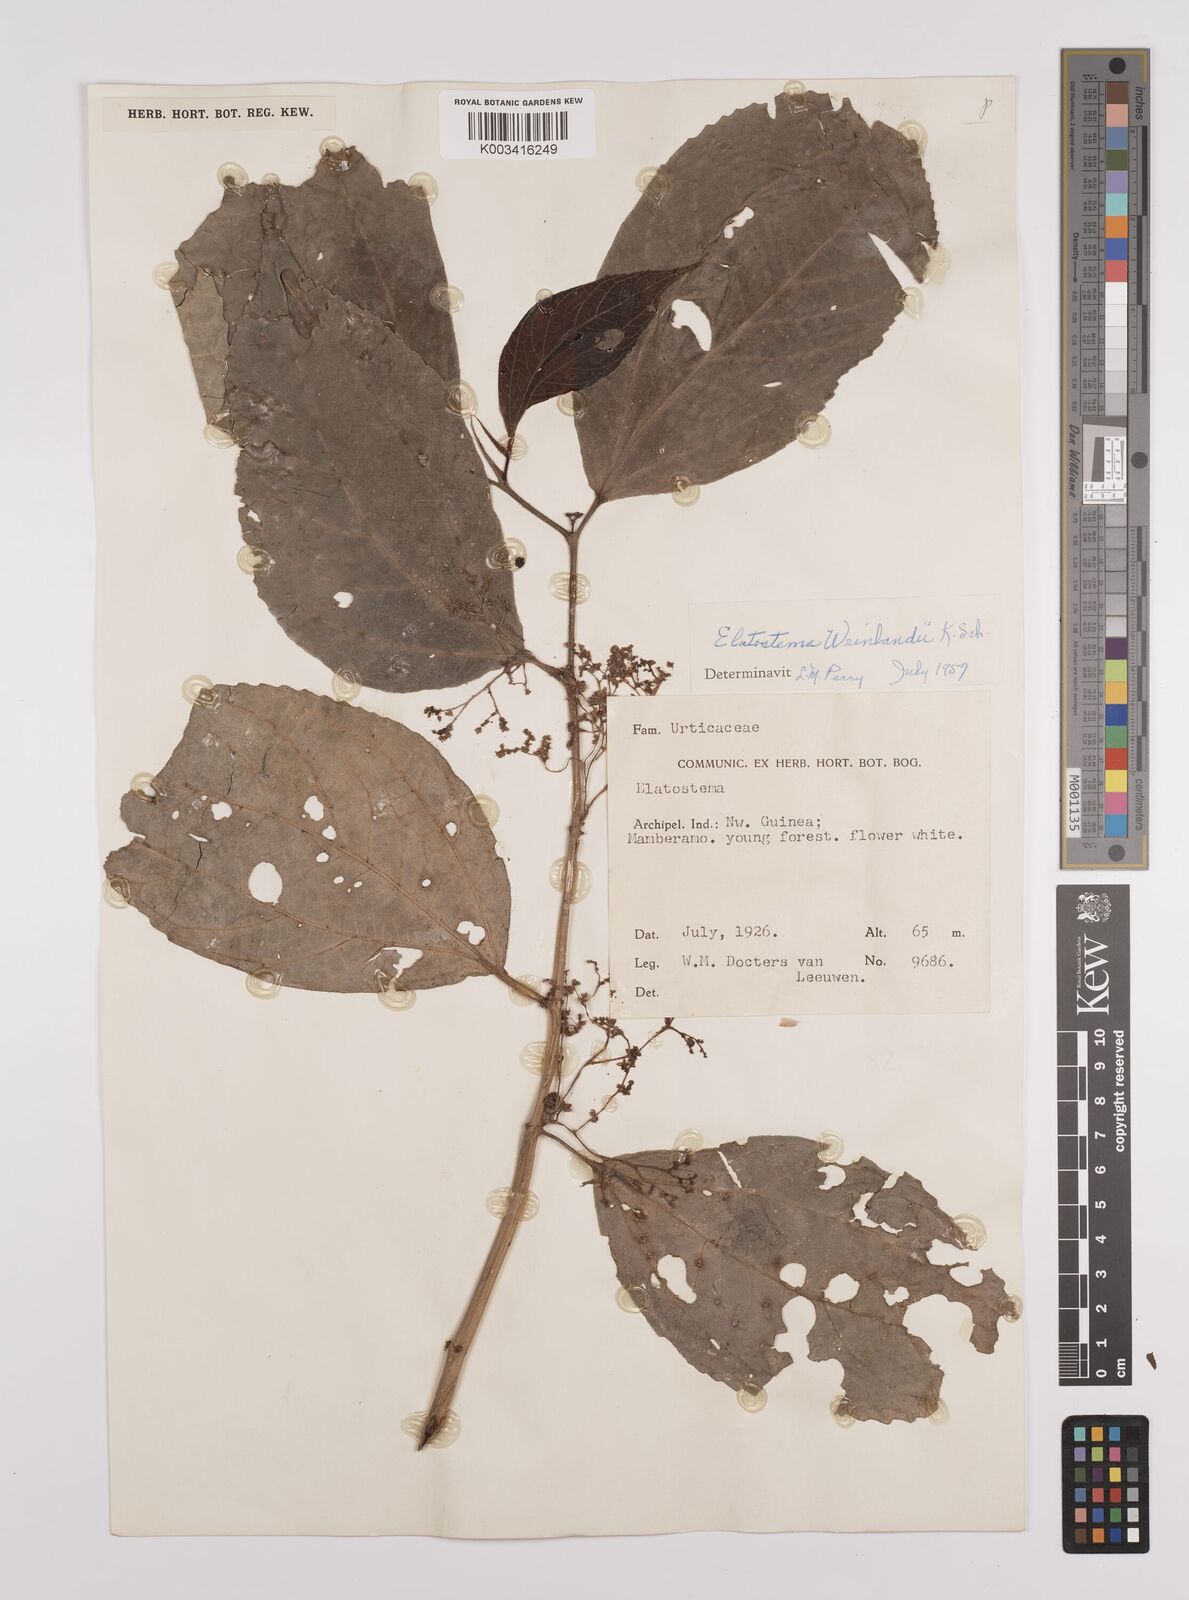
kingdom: Plantae
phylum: Tracheophyta
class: Magnoliopsida
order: Rosales
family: Urticaceae
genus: Elatostema
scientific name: Elatostema weinlandii
